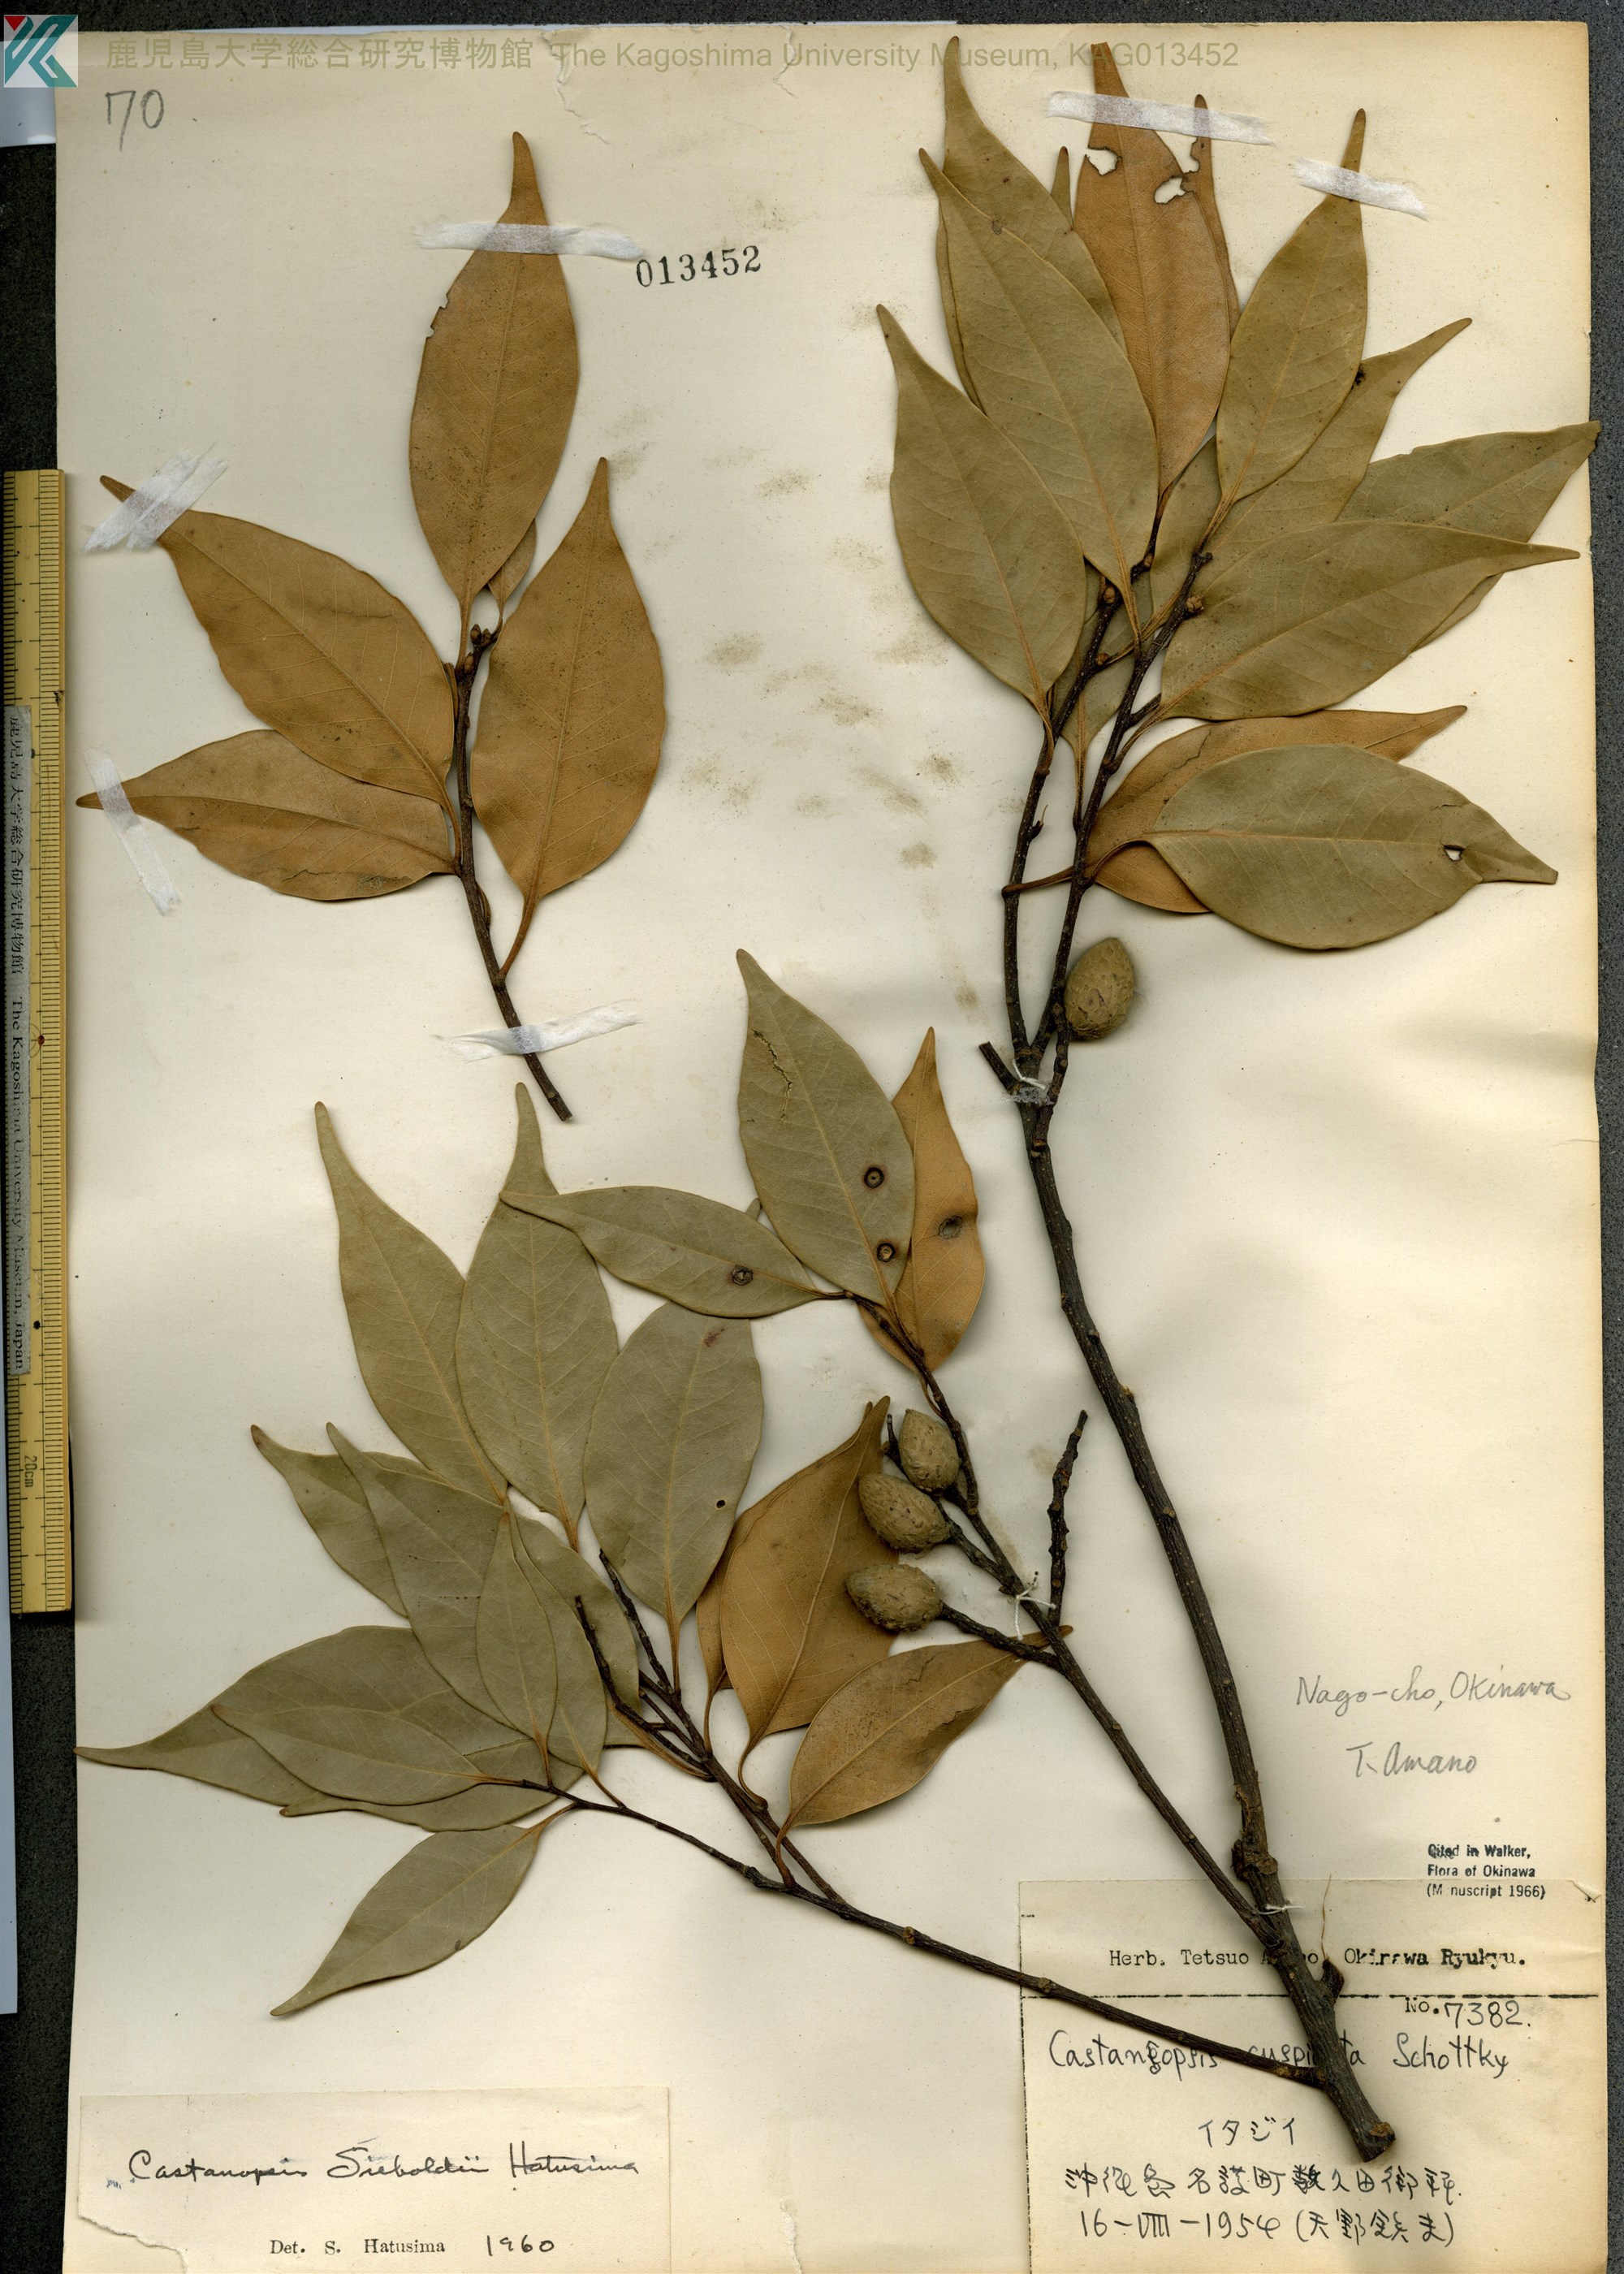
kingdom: Plantae
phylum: Tracheophyta
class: Magnoliopsida
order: Fagales
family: Fagaceae
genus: Castanopsis
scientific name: Castanopsis sieboldii
